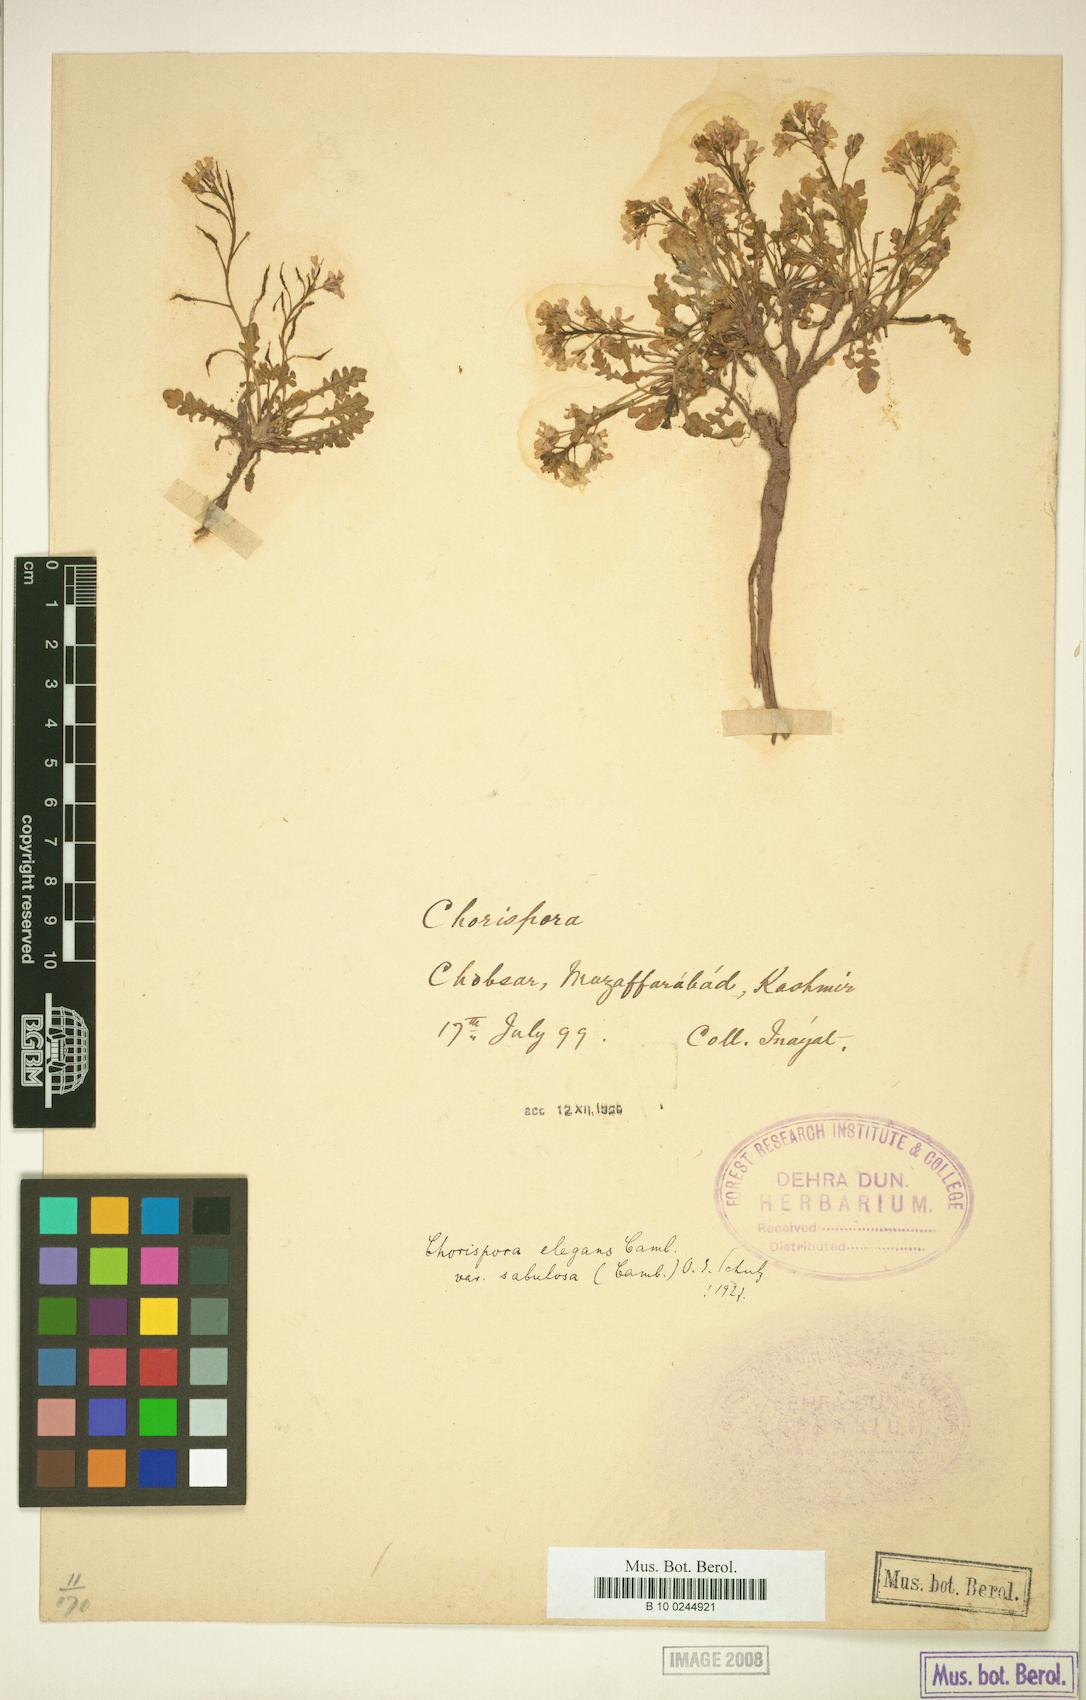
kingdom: Plantae
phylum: Tracheophyta
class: Magnoliopsida
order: Brassicales
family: Brassicaceae
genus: Chorispora
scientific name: Chorispora sabulosa
